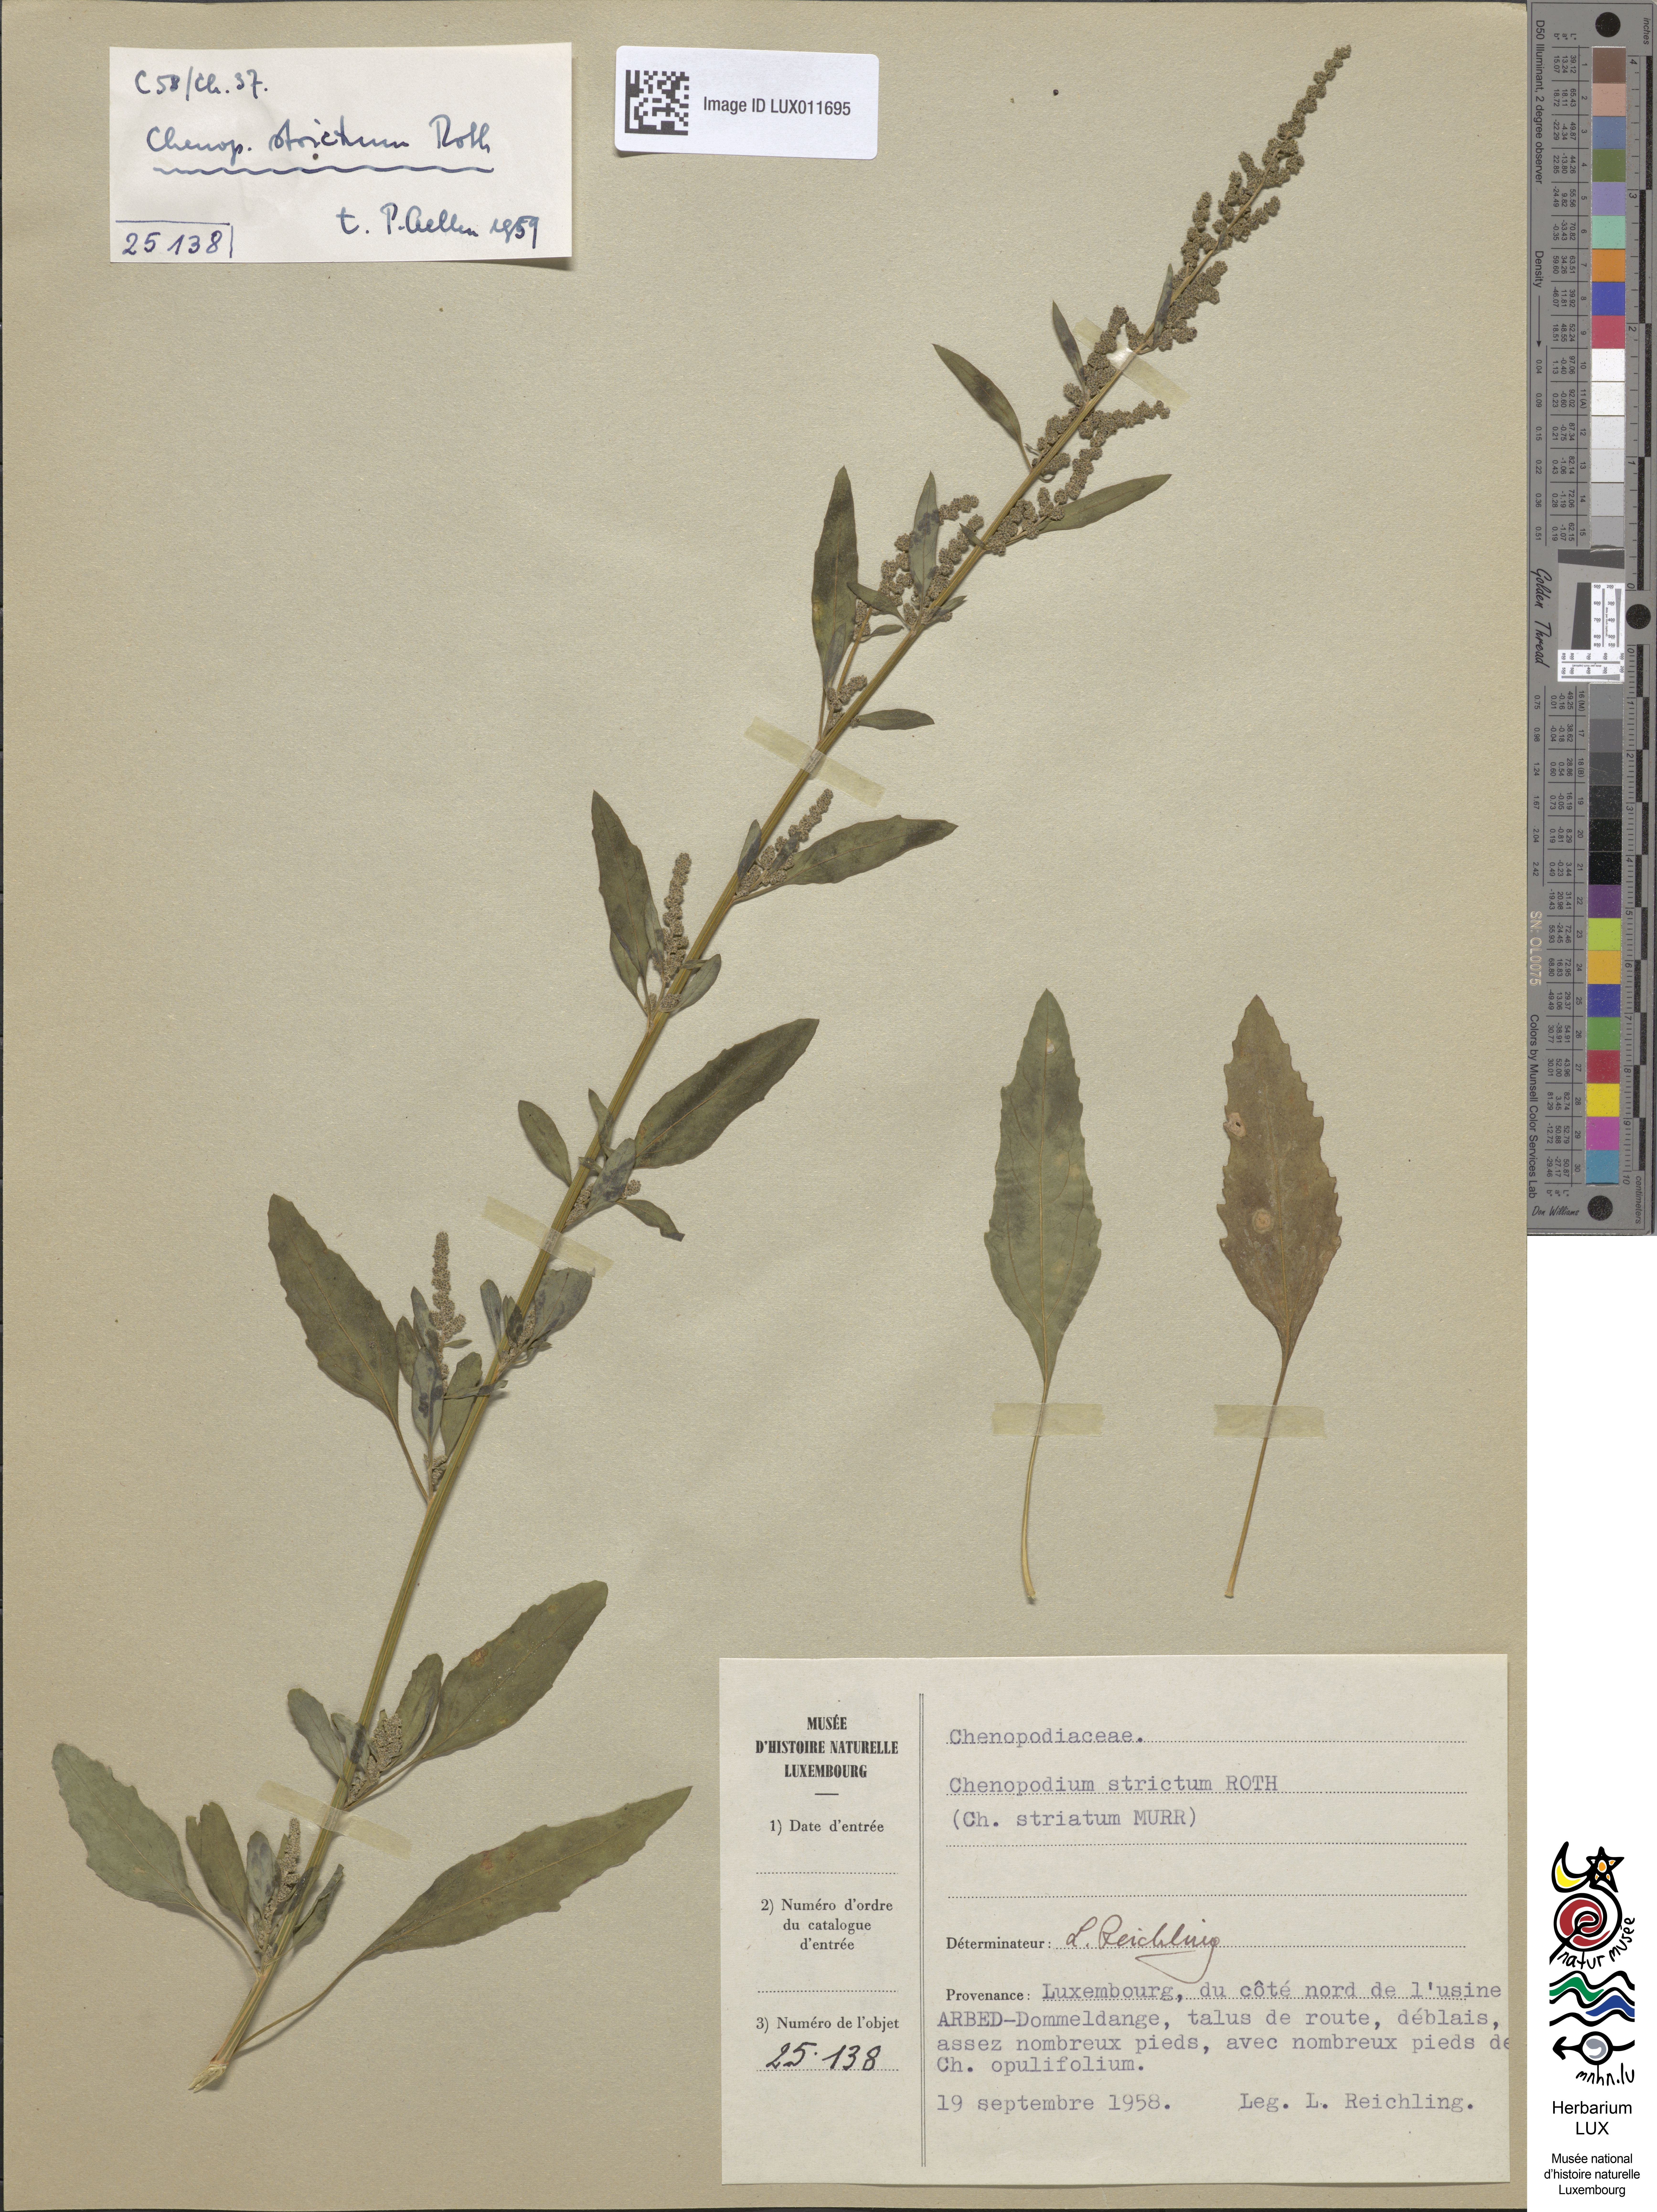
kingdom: Plantae
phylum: Tracheophyta
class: Magnoliopsida
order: Caryophyllales
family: Amaranthaceae
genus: Chenopodium
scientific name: Chenopodium album
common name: Fat-hen
